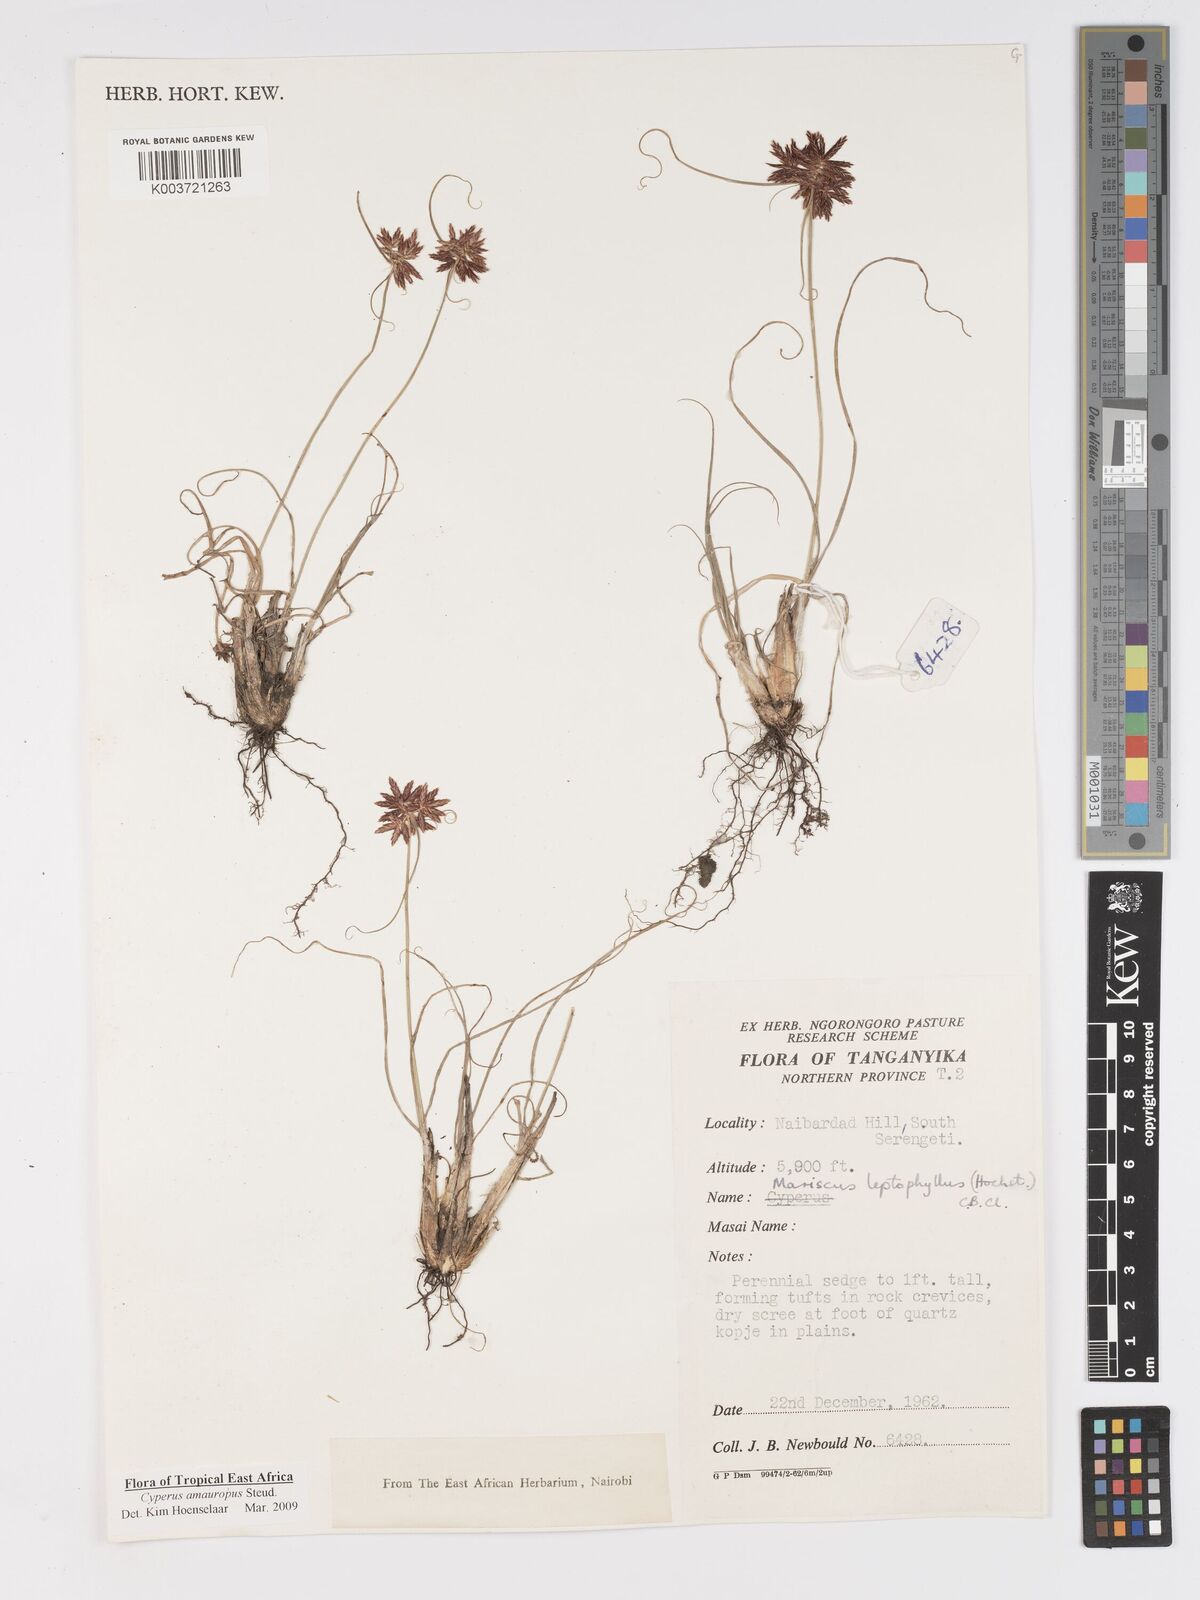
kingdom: Plantae
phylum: Tracheophyta
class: Liliopsida
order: Poales
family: Cyperaceae
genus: Cyperus
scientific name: Cyperus amauropus
